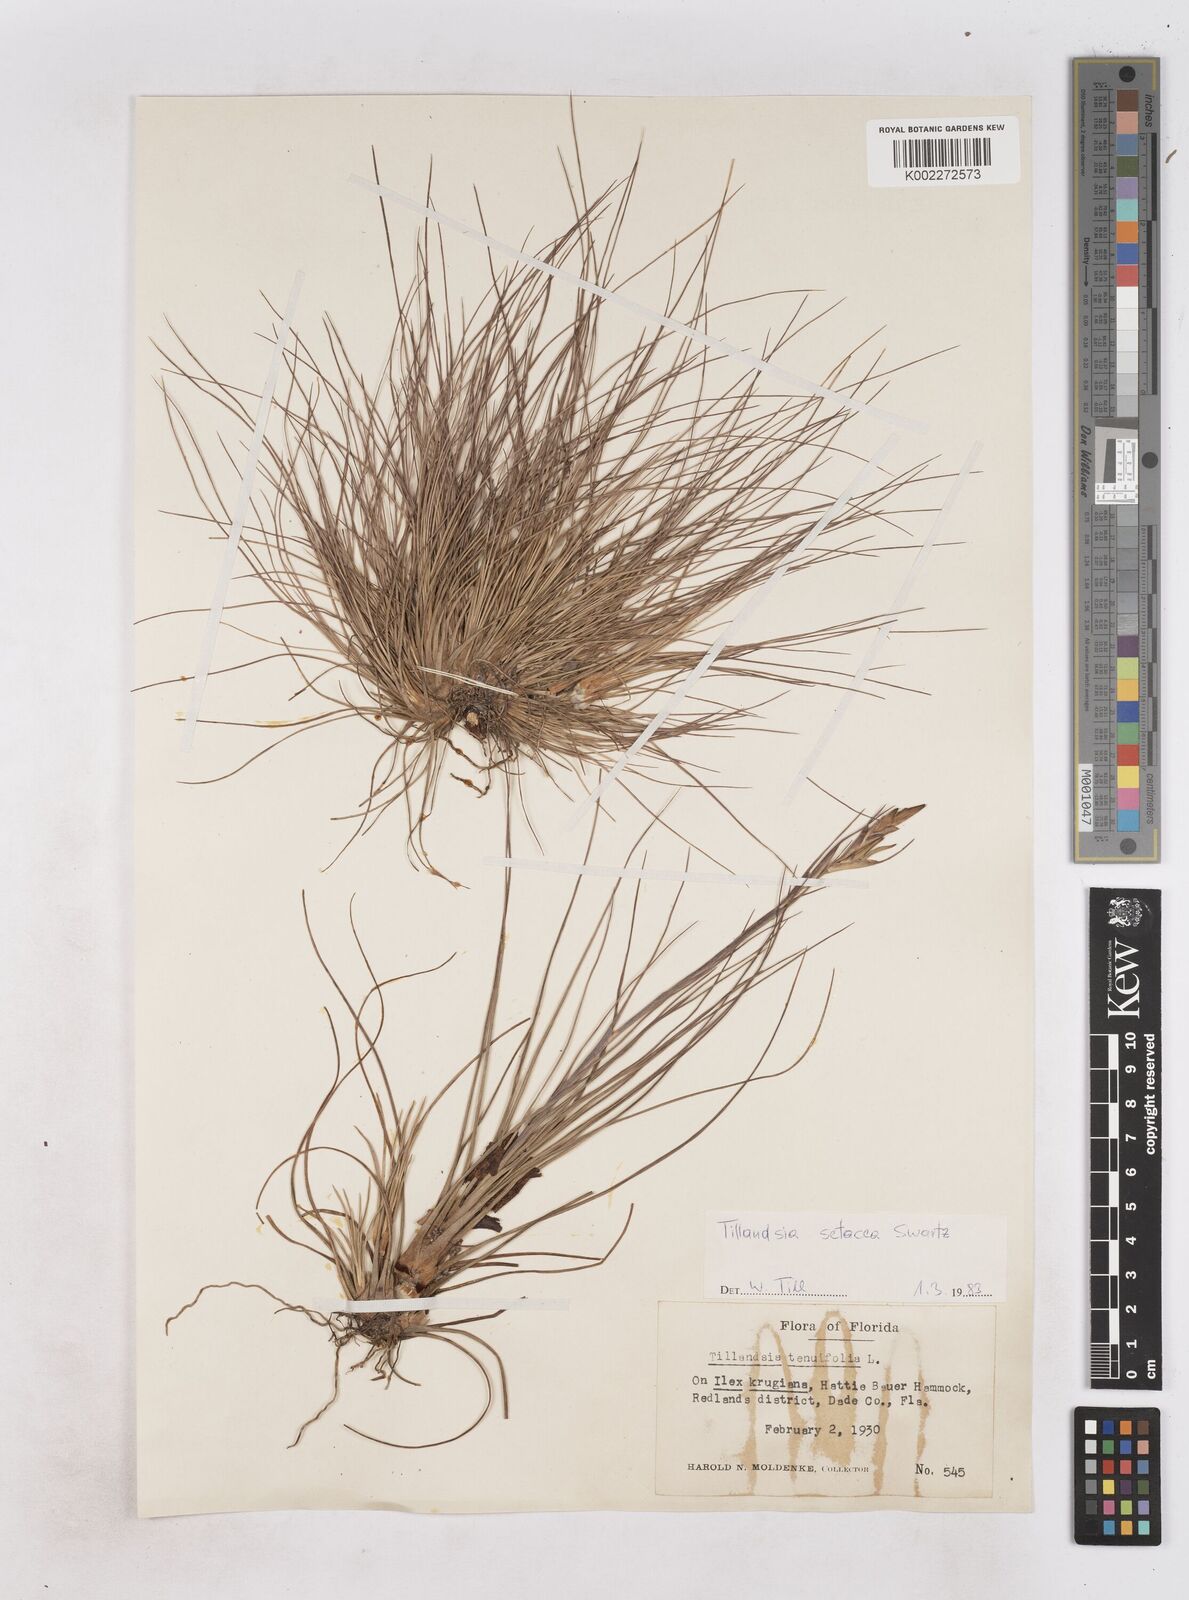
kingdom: Plantae
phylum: Tracheophyta
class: Liliopsida
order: Poales
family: Bromeliaceae
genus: Tillandsia
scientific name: Tillandsia
